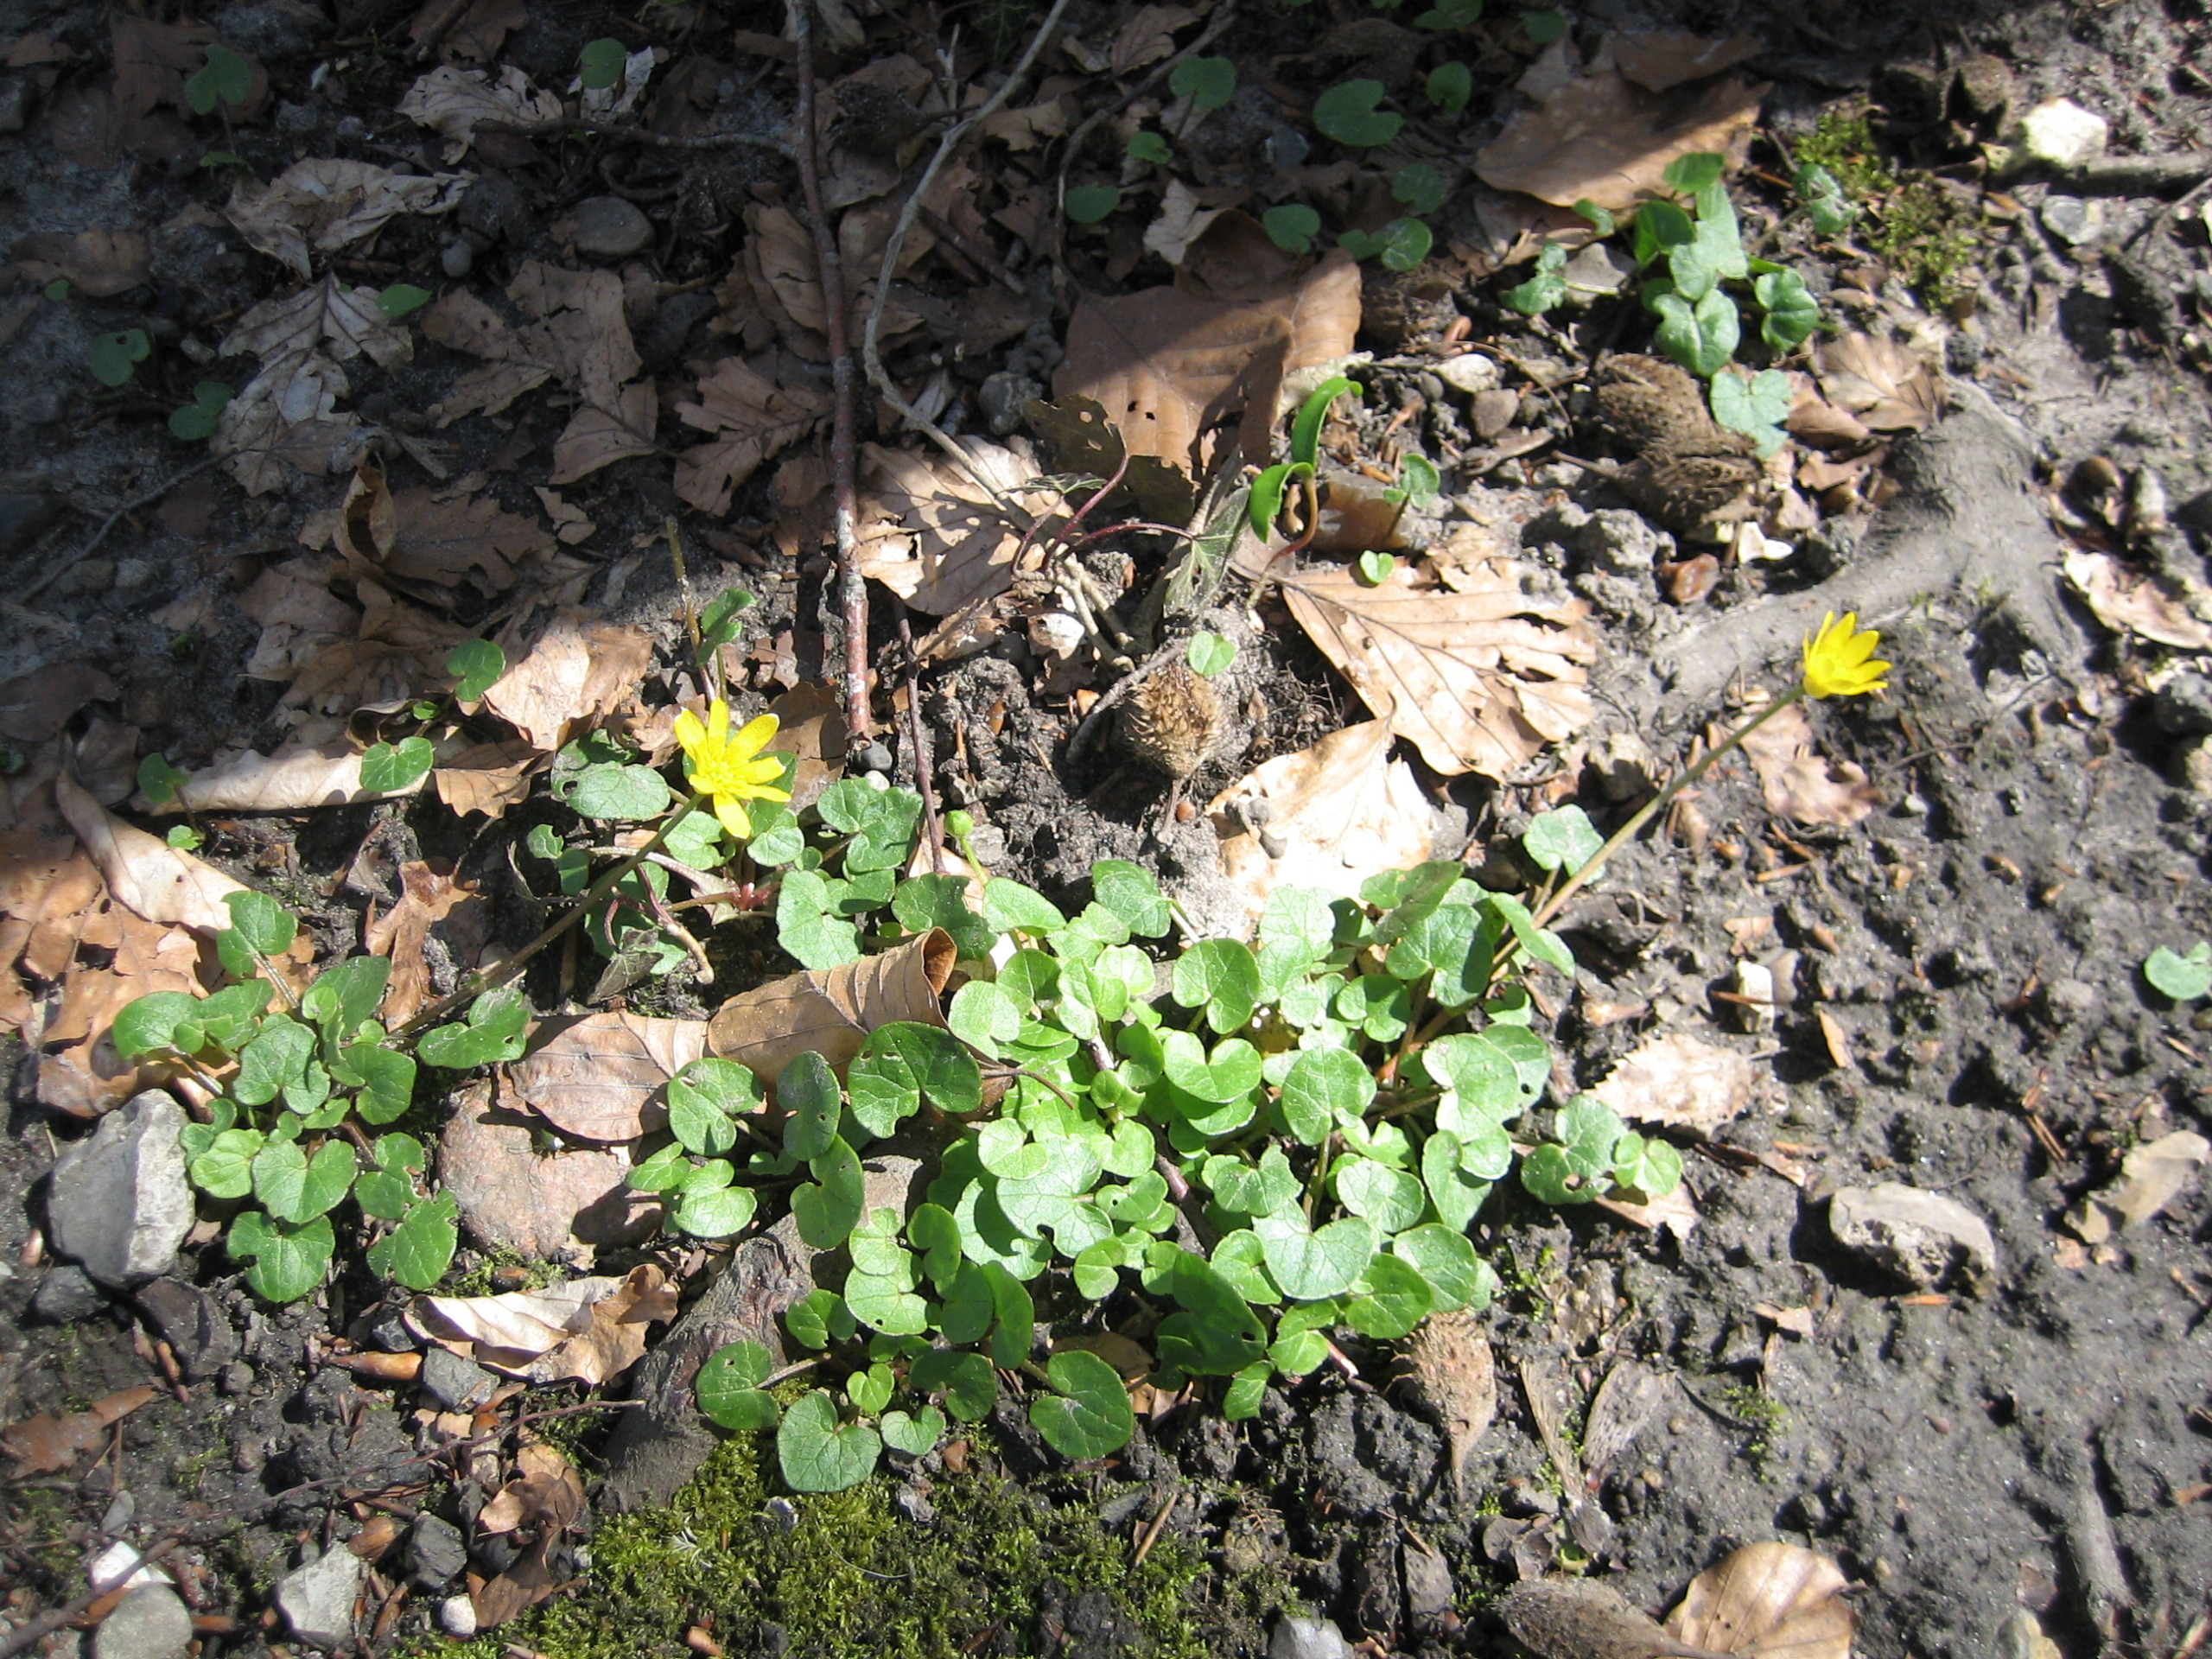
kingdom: Plantae
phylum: Tracheophyta
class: Magnoliopsida
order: Ranunculales
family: Ranunculaceae
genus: Ficaria
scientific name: Ficaria verna
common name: Vorterod
